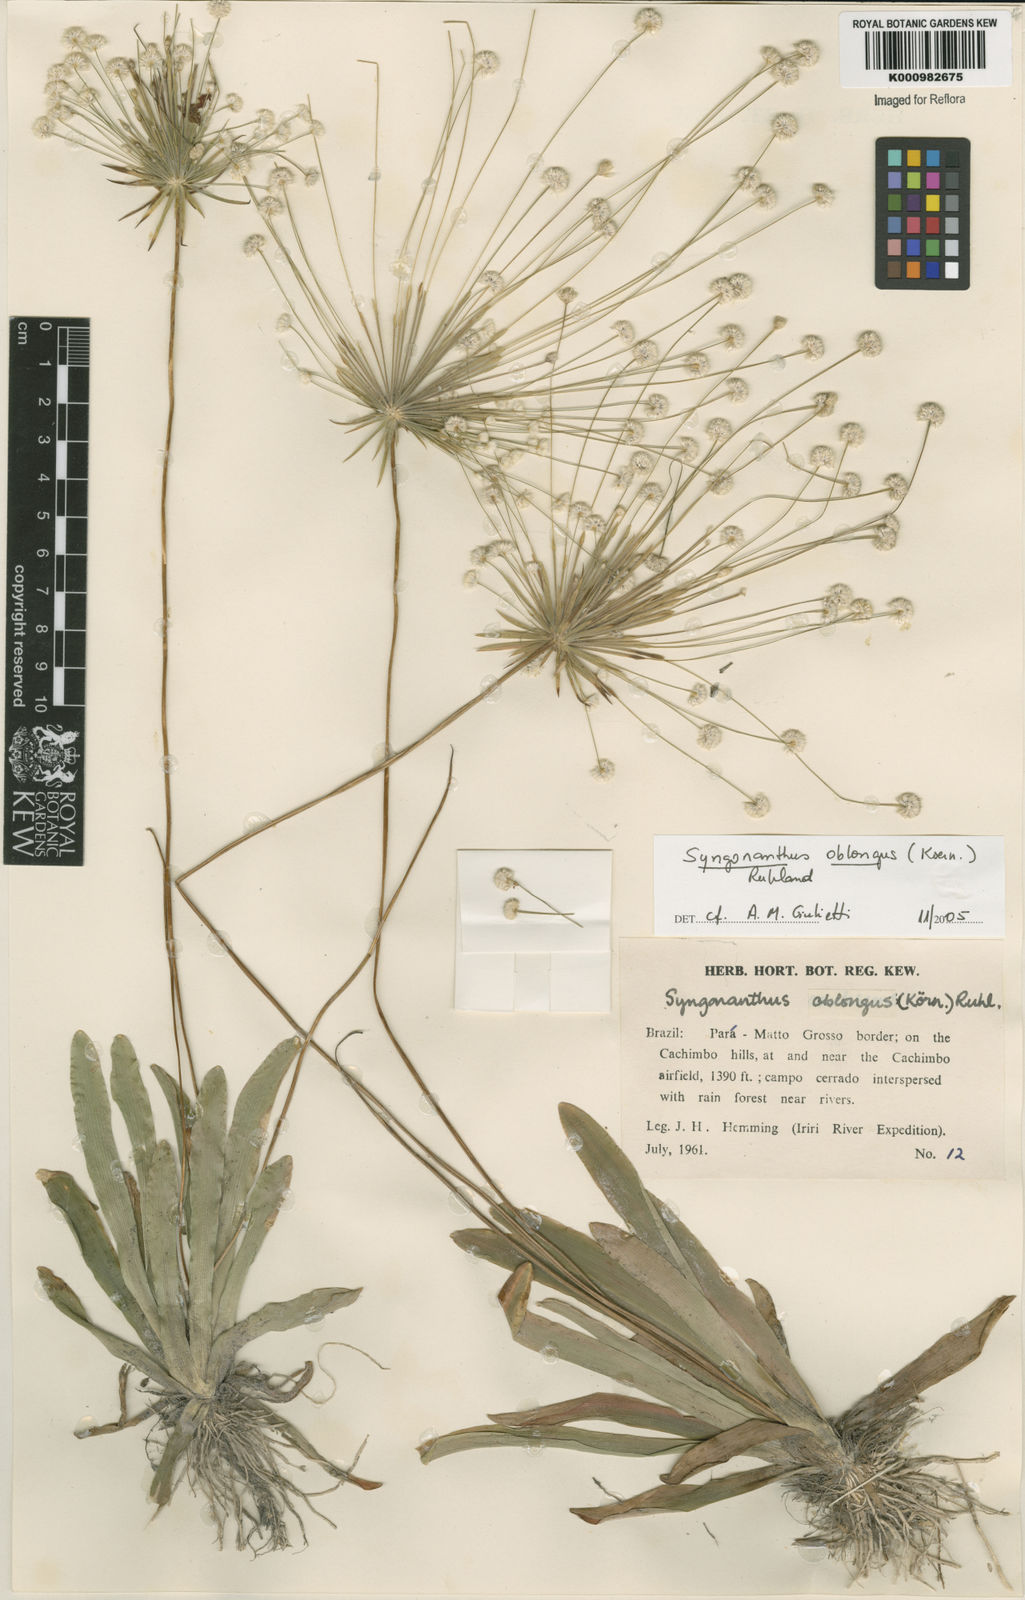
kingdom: Plantae
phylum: Tracheophyta
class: Liliopsida
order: Poales
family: Eriocaulaceae
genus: Syngonanthus
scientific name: Syngonanthus
